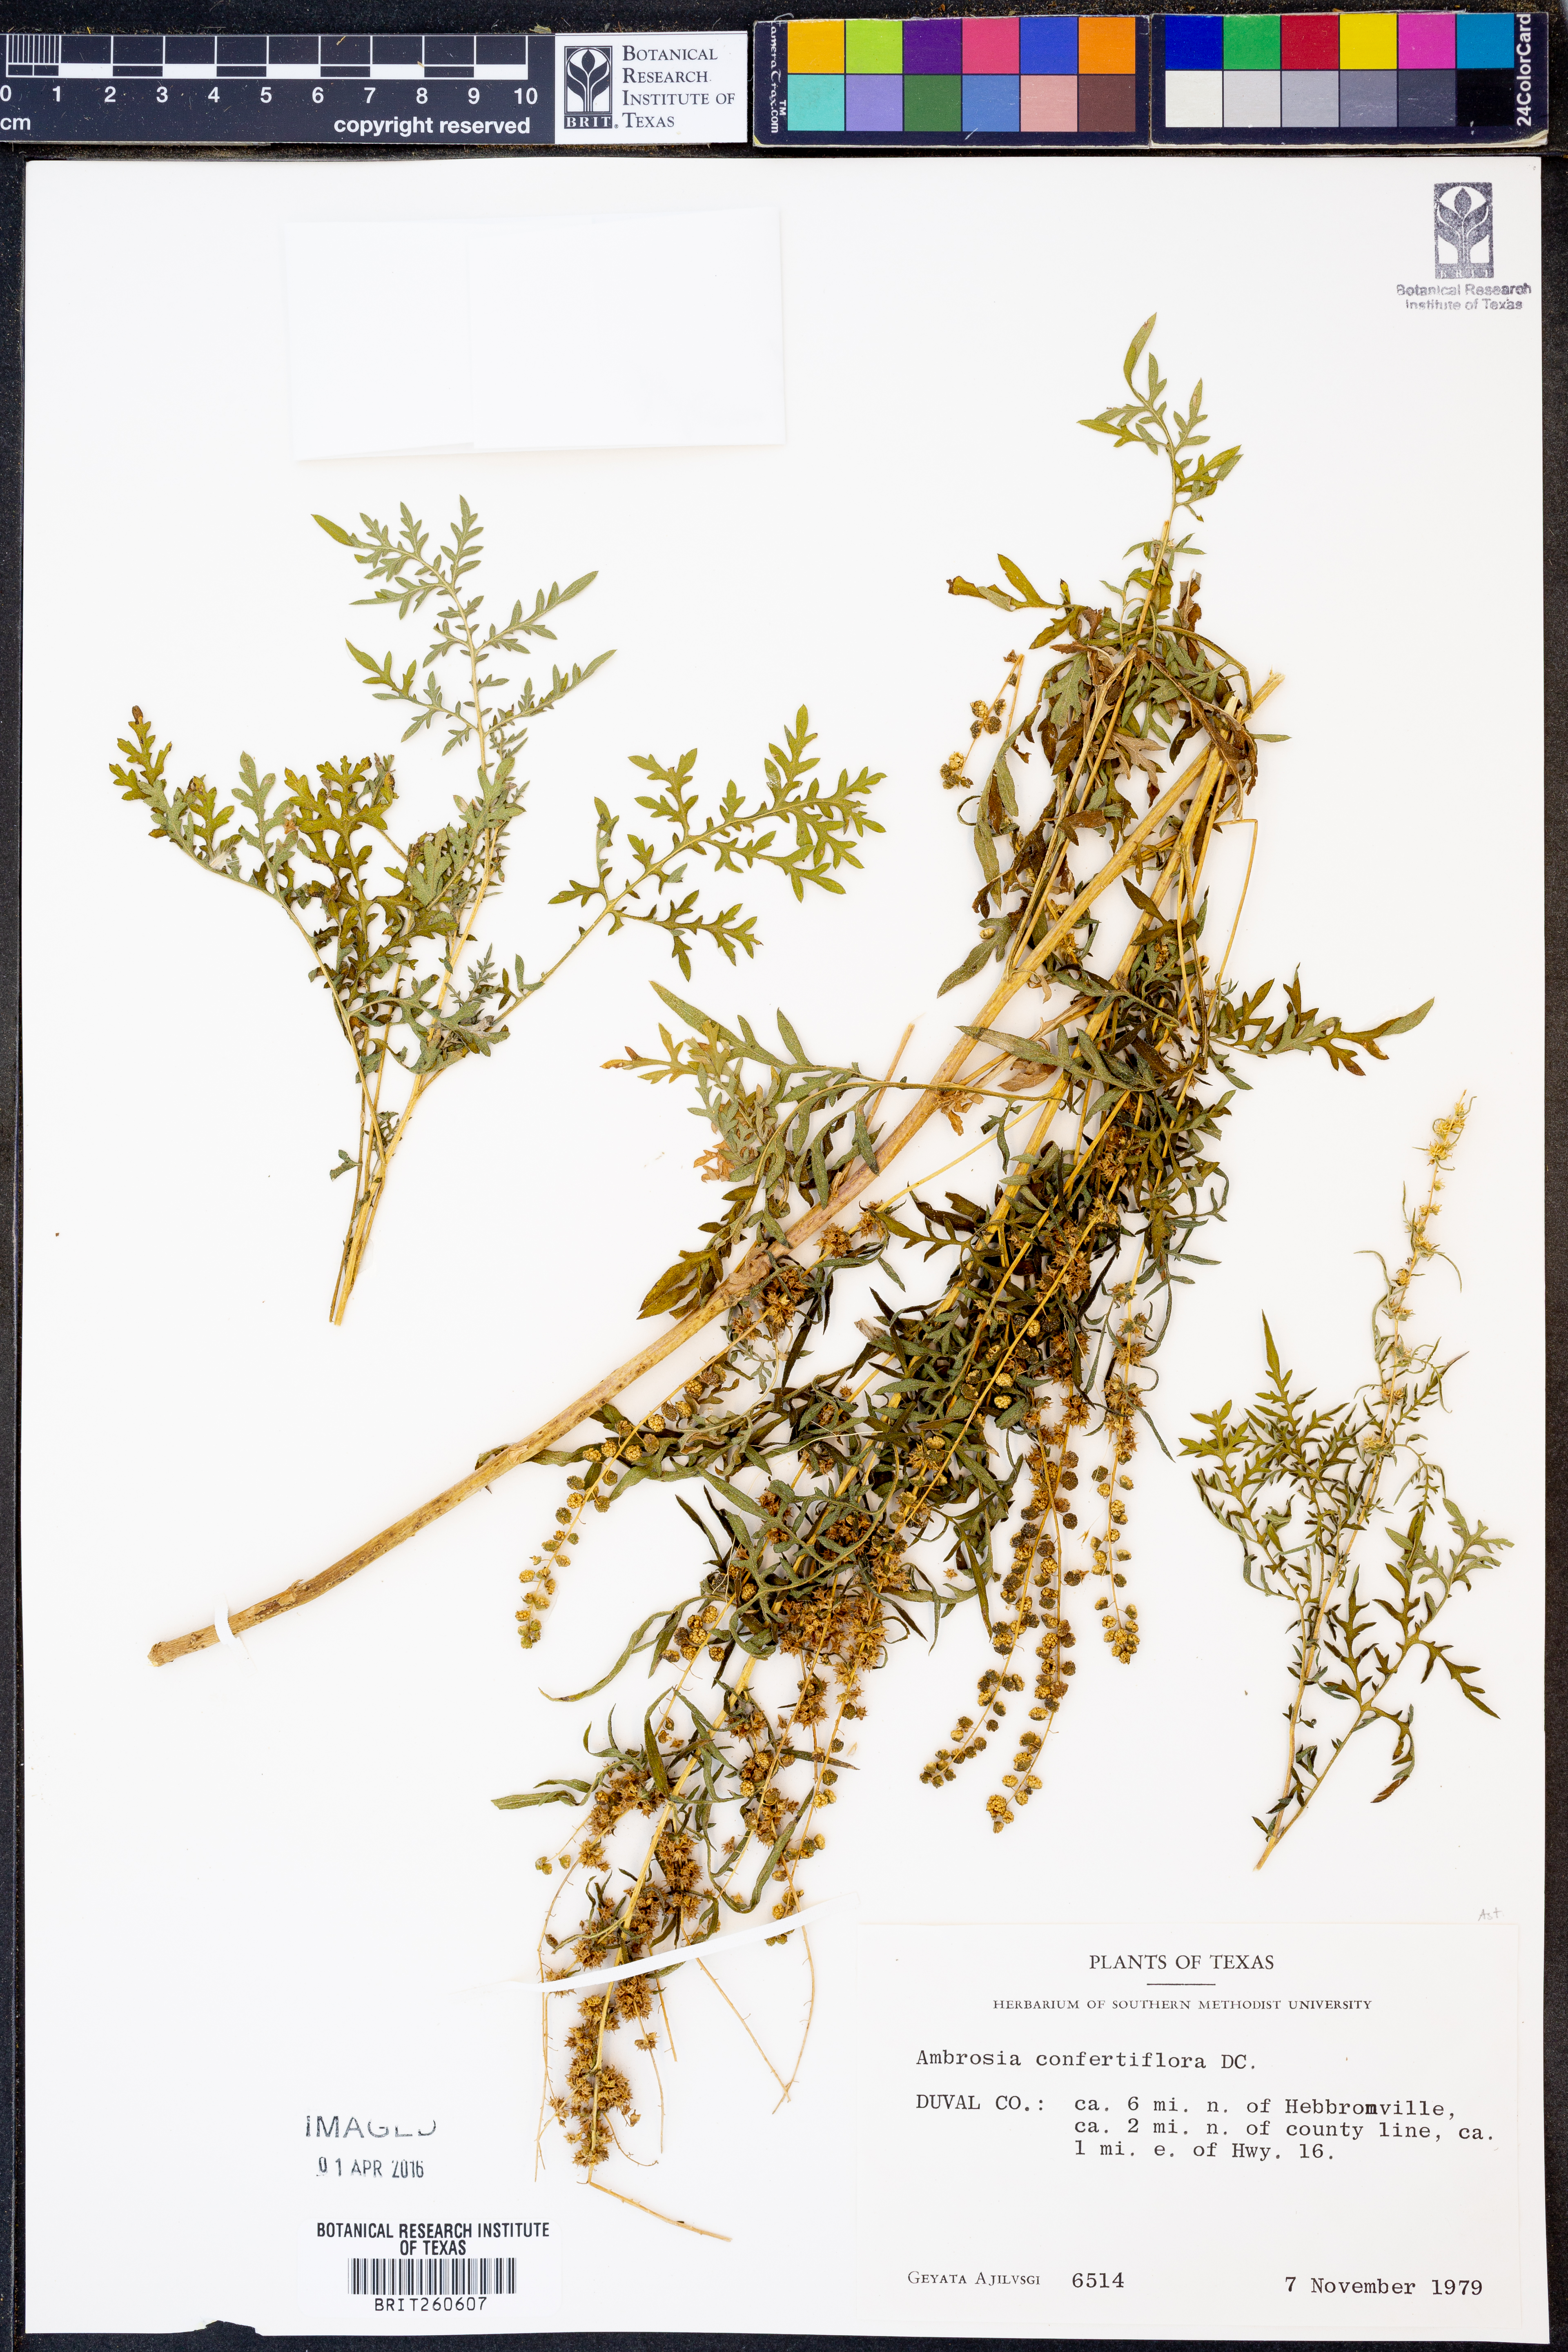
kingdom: Plantae
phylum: Tracheophyta
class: Magnoliopsida
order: Asterales
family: Asteraceae
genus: Ambrosia
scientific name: Ambrosia confertiflora
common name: Bur ragweed
